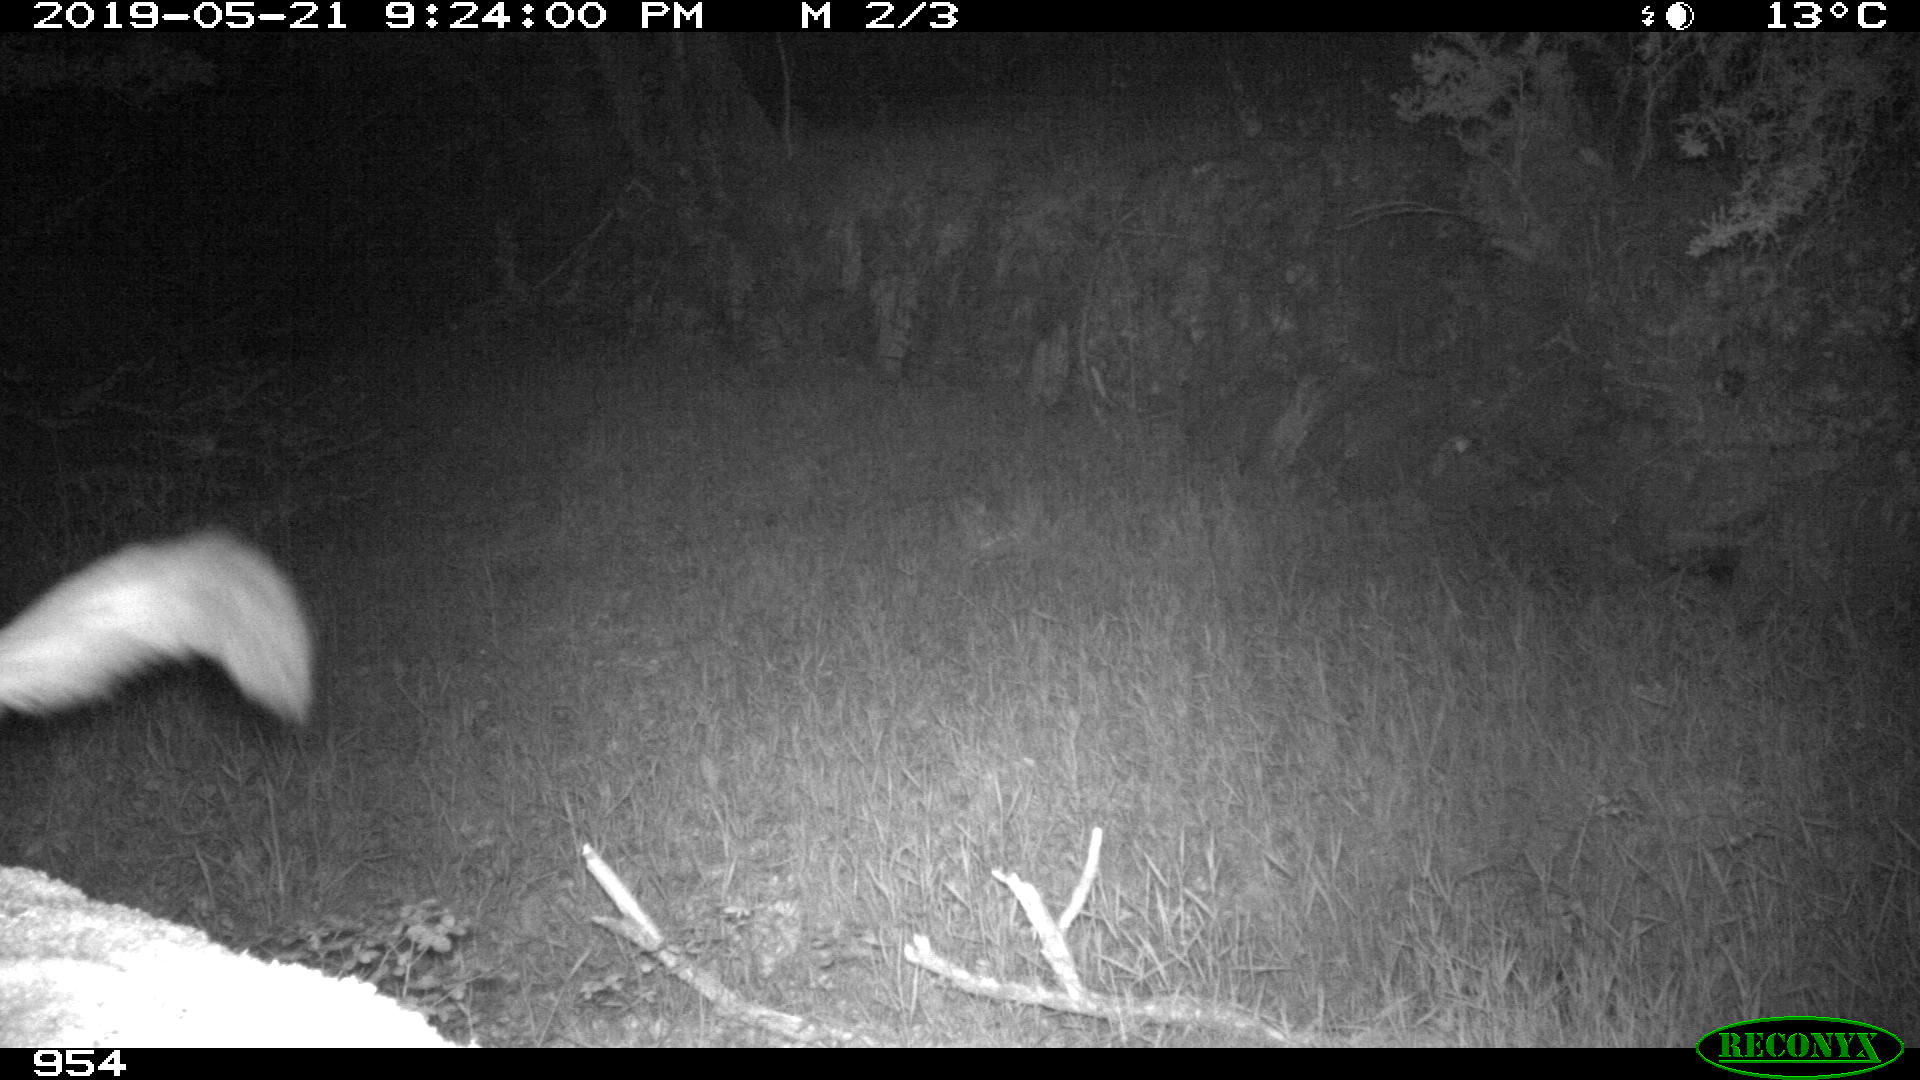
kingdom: Animalia
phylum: Chordata
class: Mammalia
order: Carnivora
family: Mustelidae
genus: Martes
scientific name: Martes foina
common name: Beech marten
